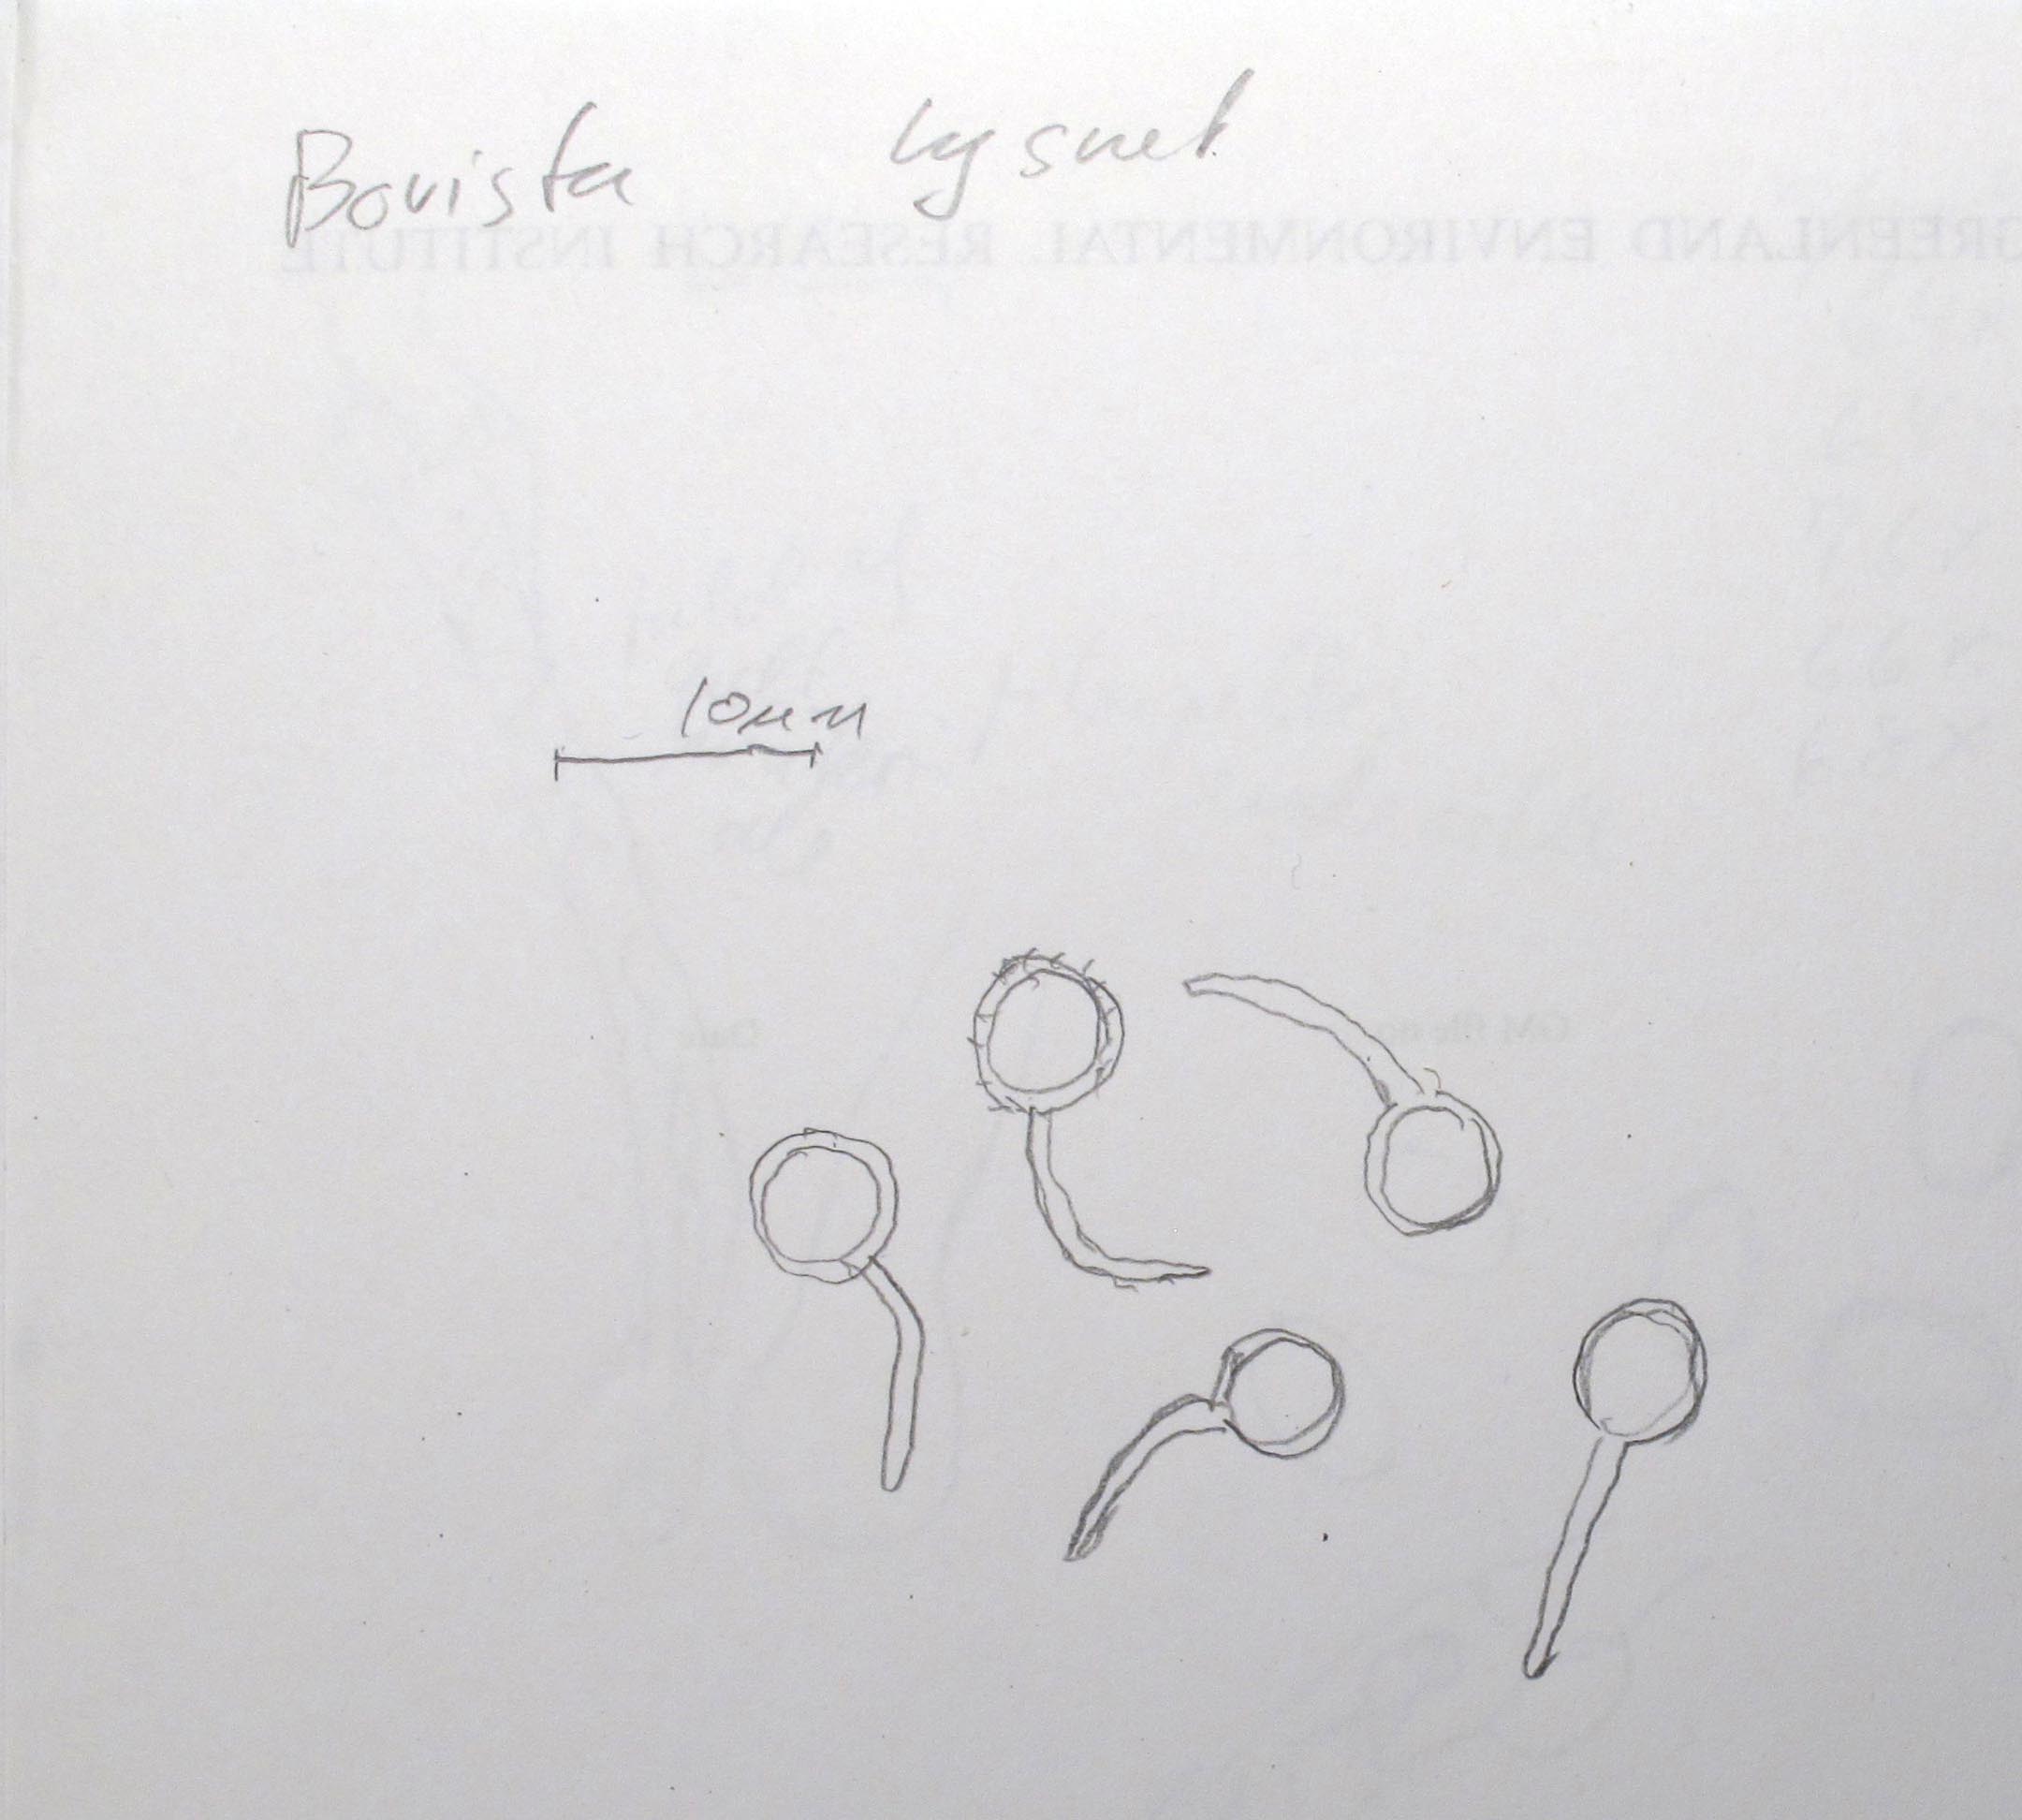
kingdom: Fungi
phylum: Basidiomycota
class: Agaricomycetes
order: Agaricales
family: Lycoperdaceae
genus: Bovista
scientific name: Bovista nigrescens
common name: sortagtig bovist
